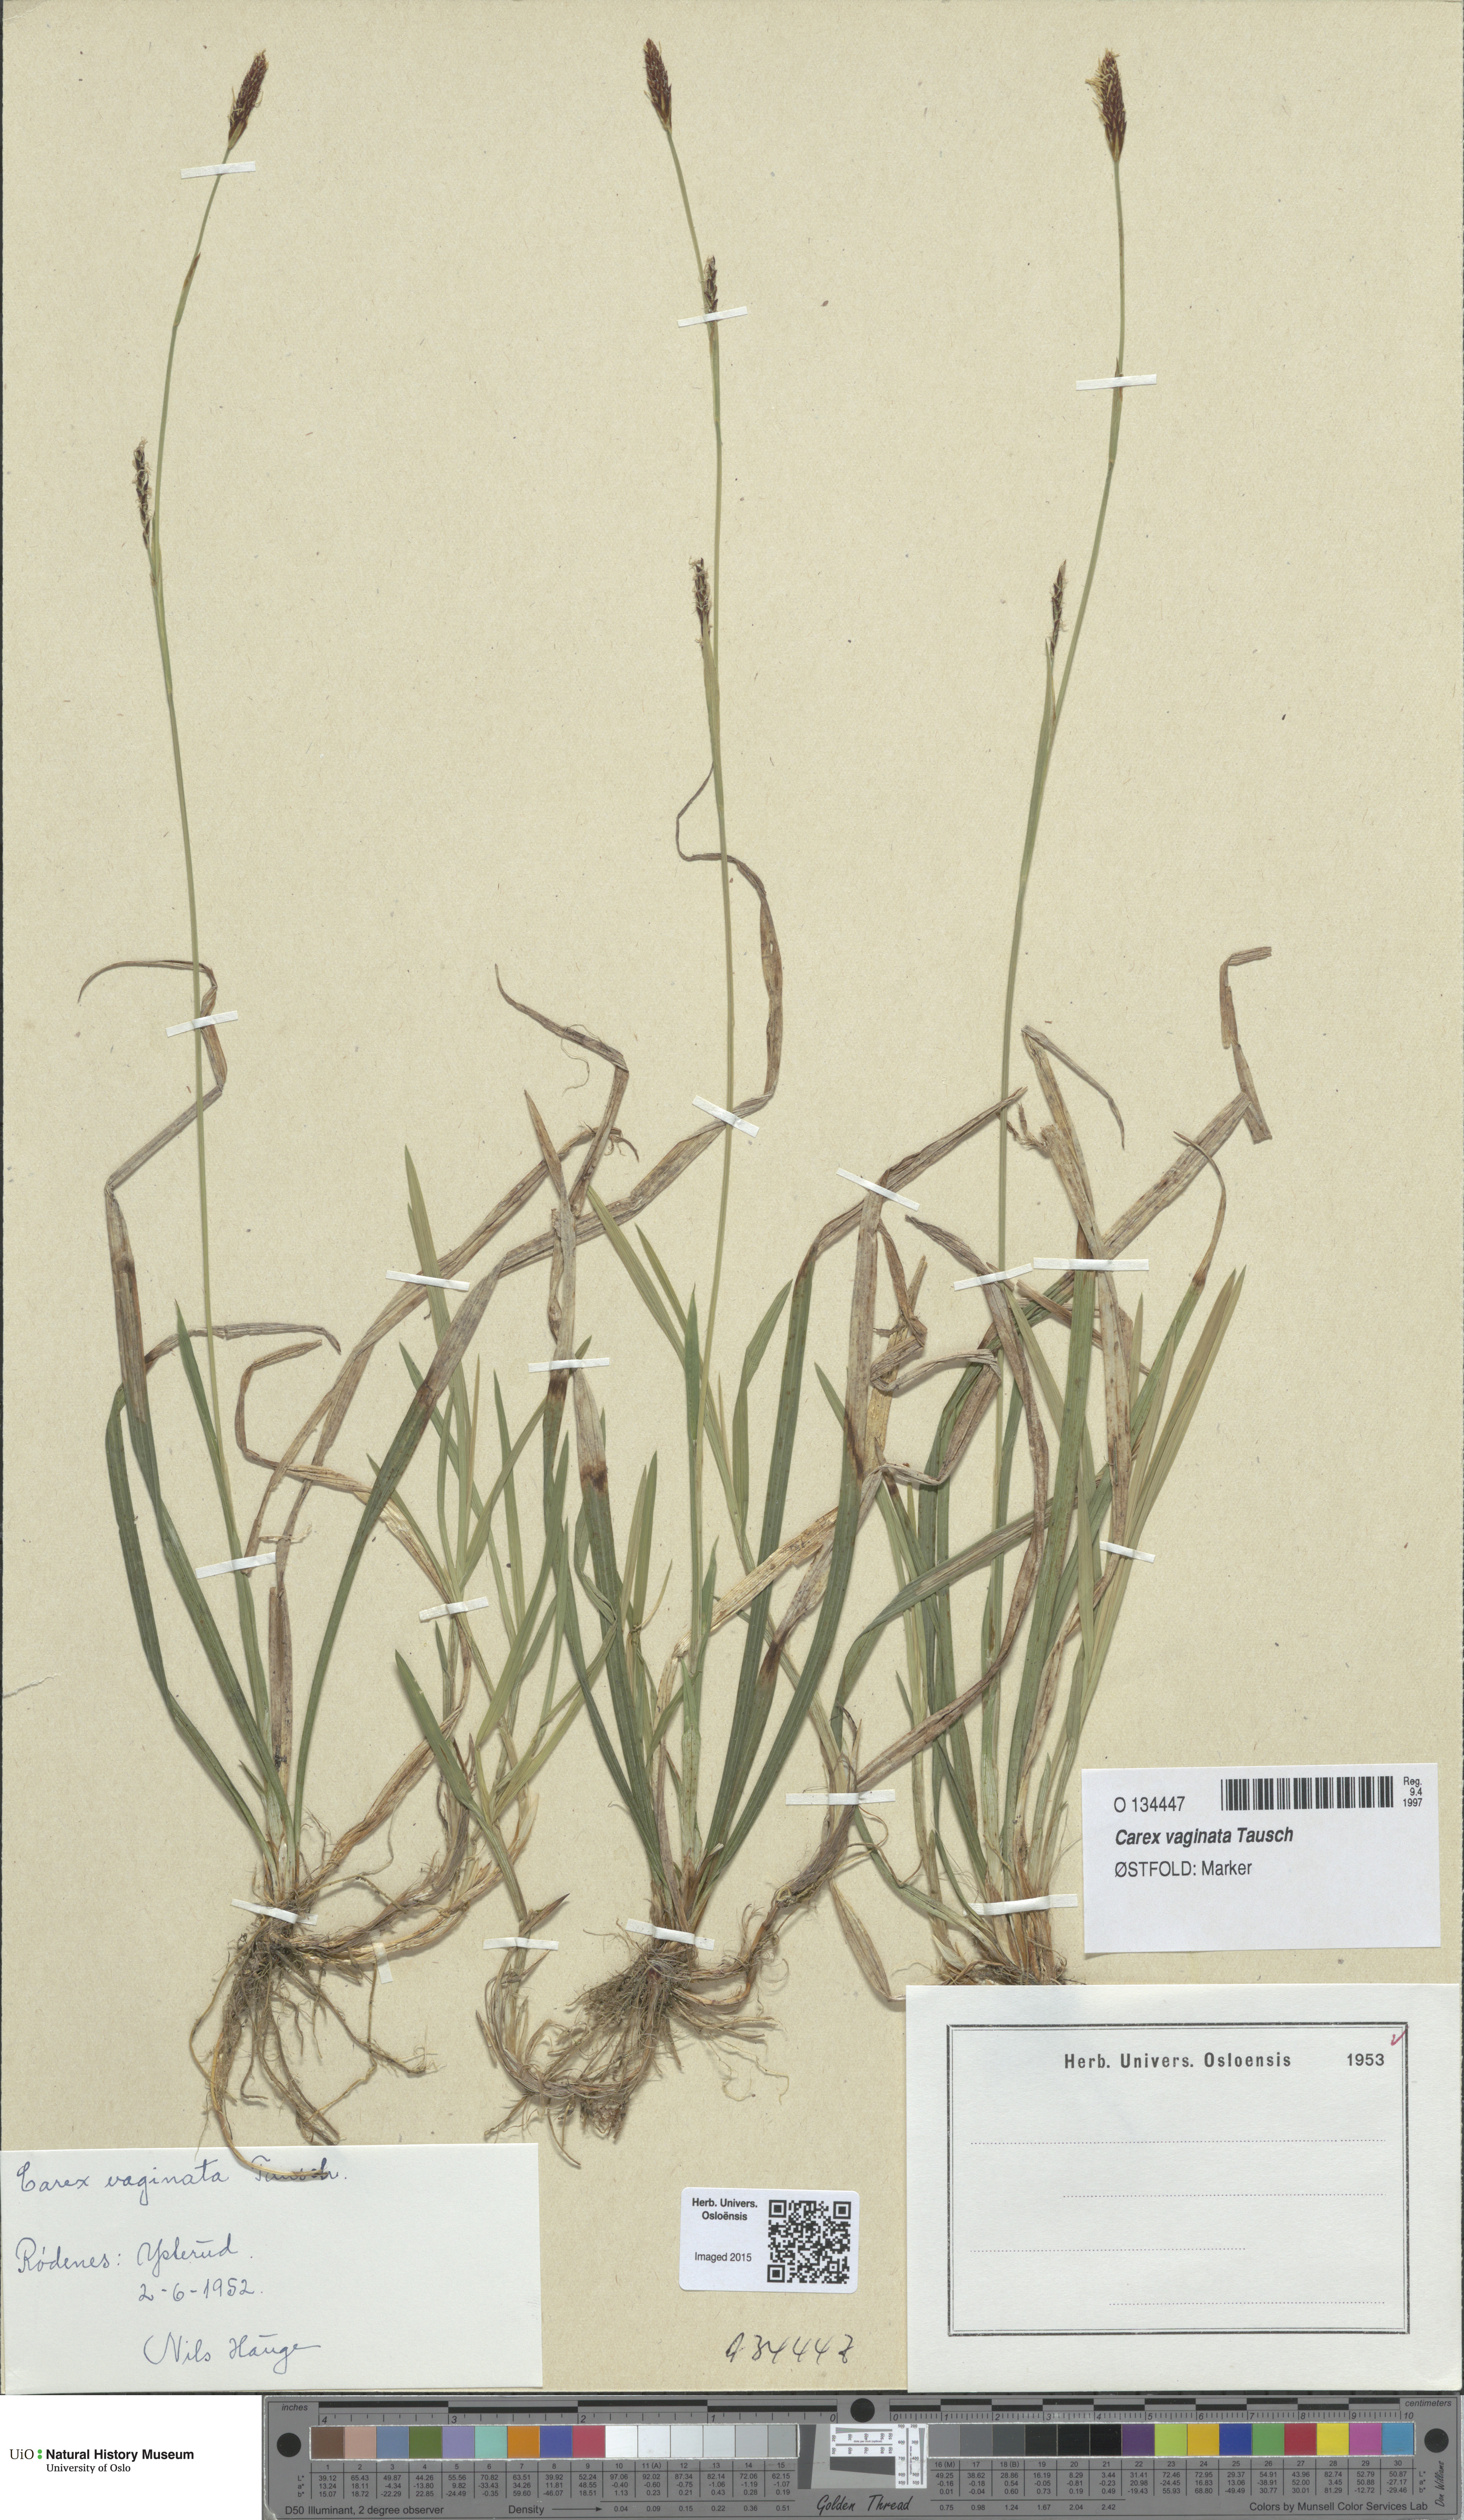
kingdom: Plantae
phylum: Tracheophyta
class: Liliopsida
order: Poales
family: Cyperaceae
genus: Carex
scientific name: Carex vaginata
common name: Sheathed sedge
